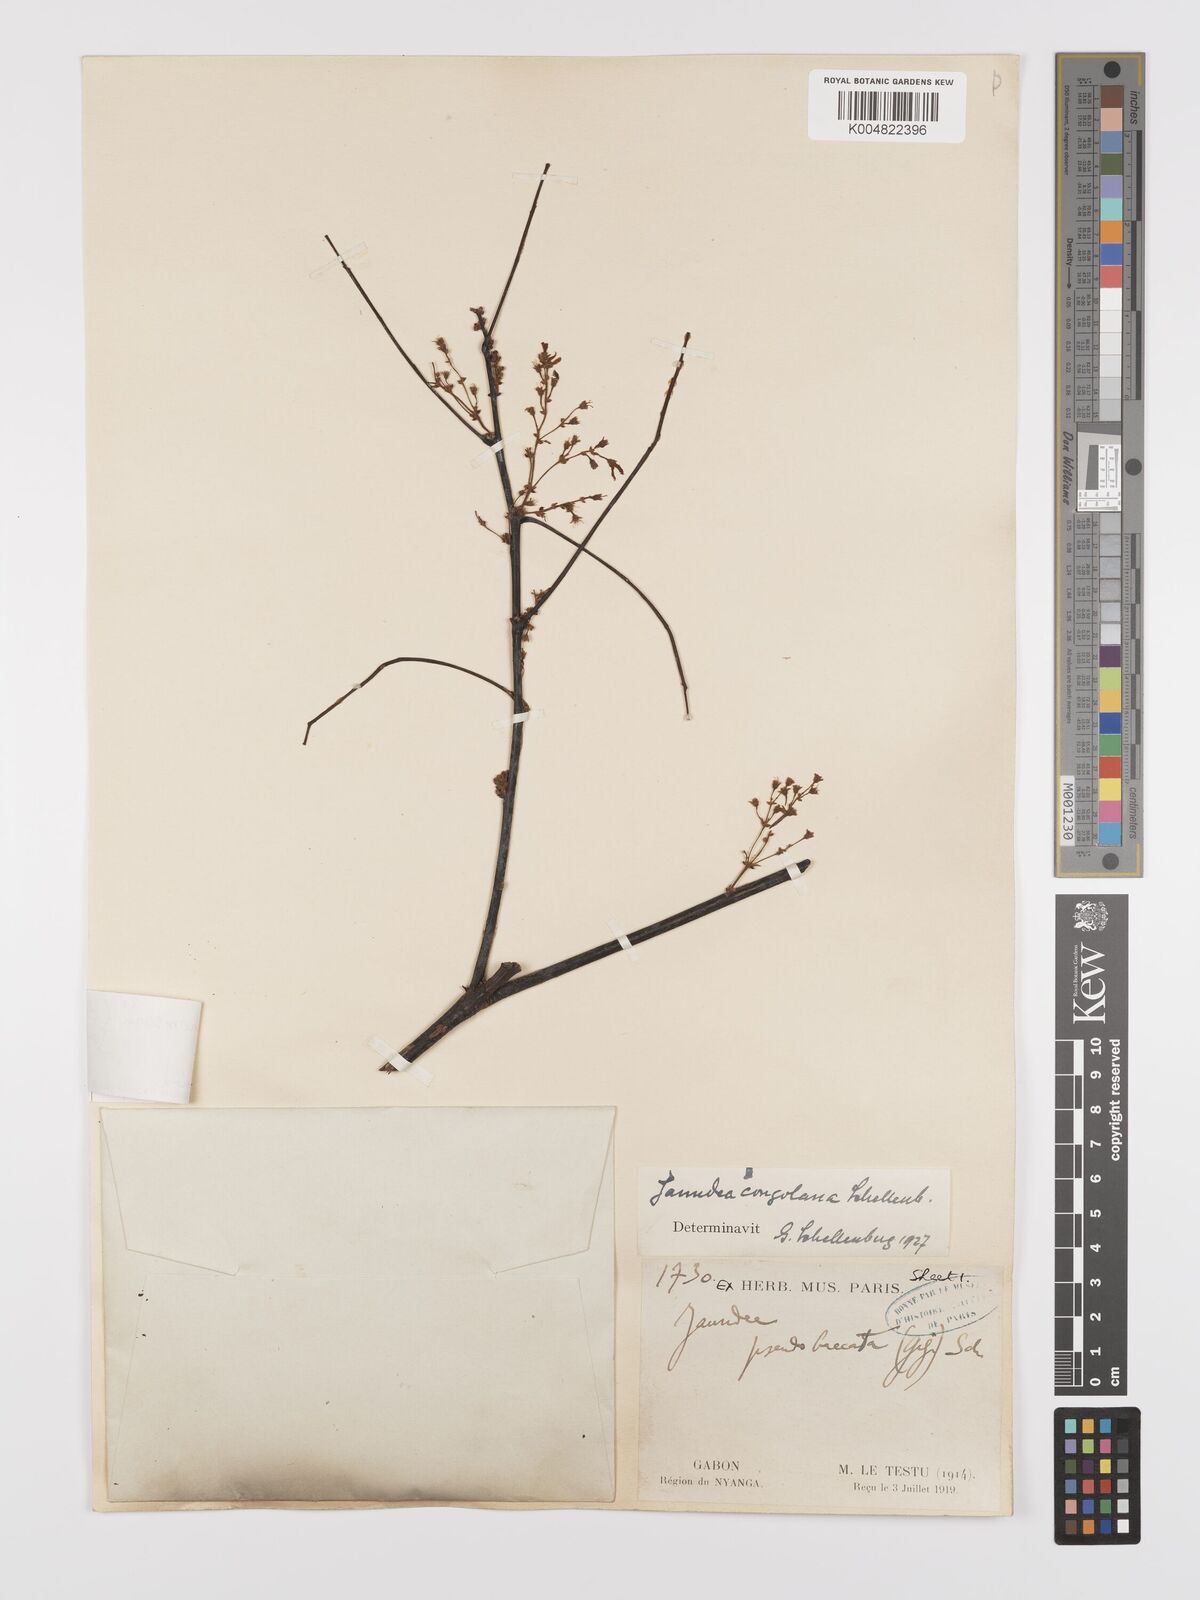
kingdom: Plantae
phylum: Tracheophyta
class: Magnoliopsida
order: Oxalidales
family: Connaraceae
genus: Rourea
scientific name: Rourea pubescens
